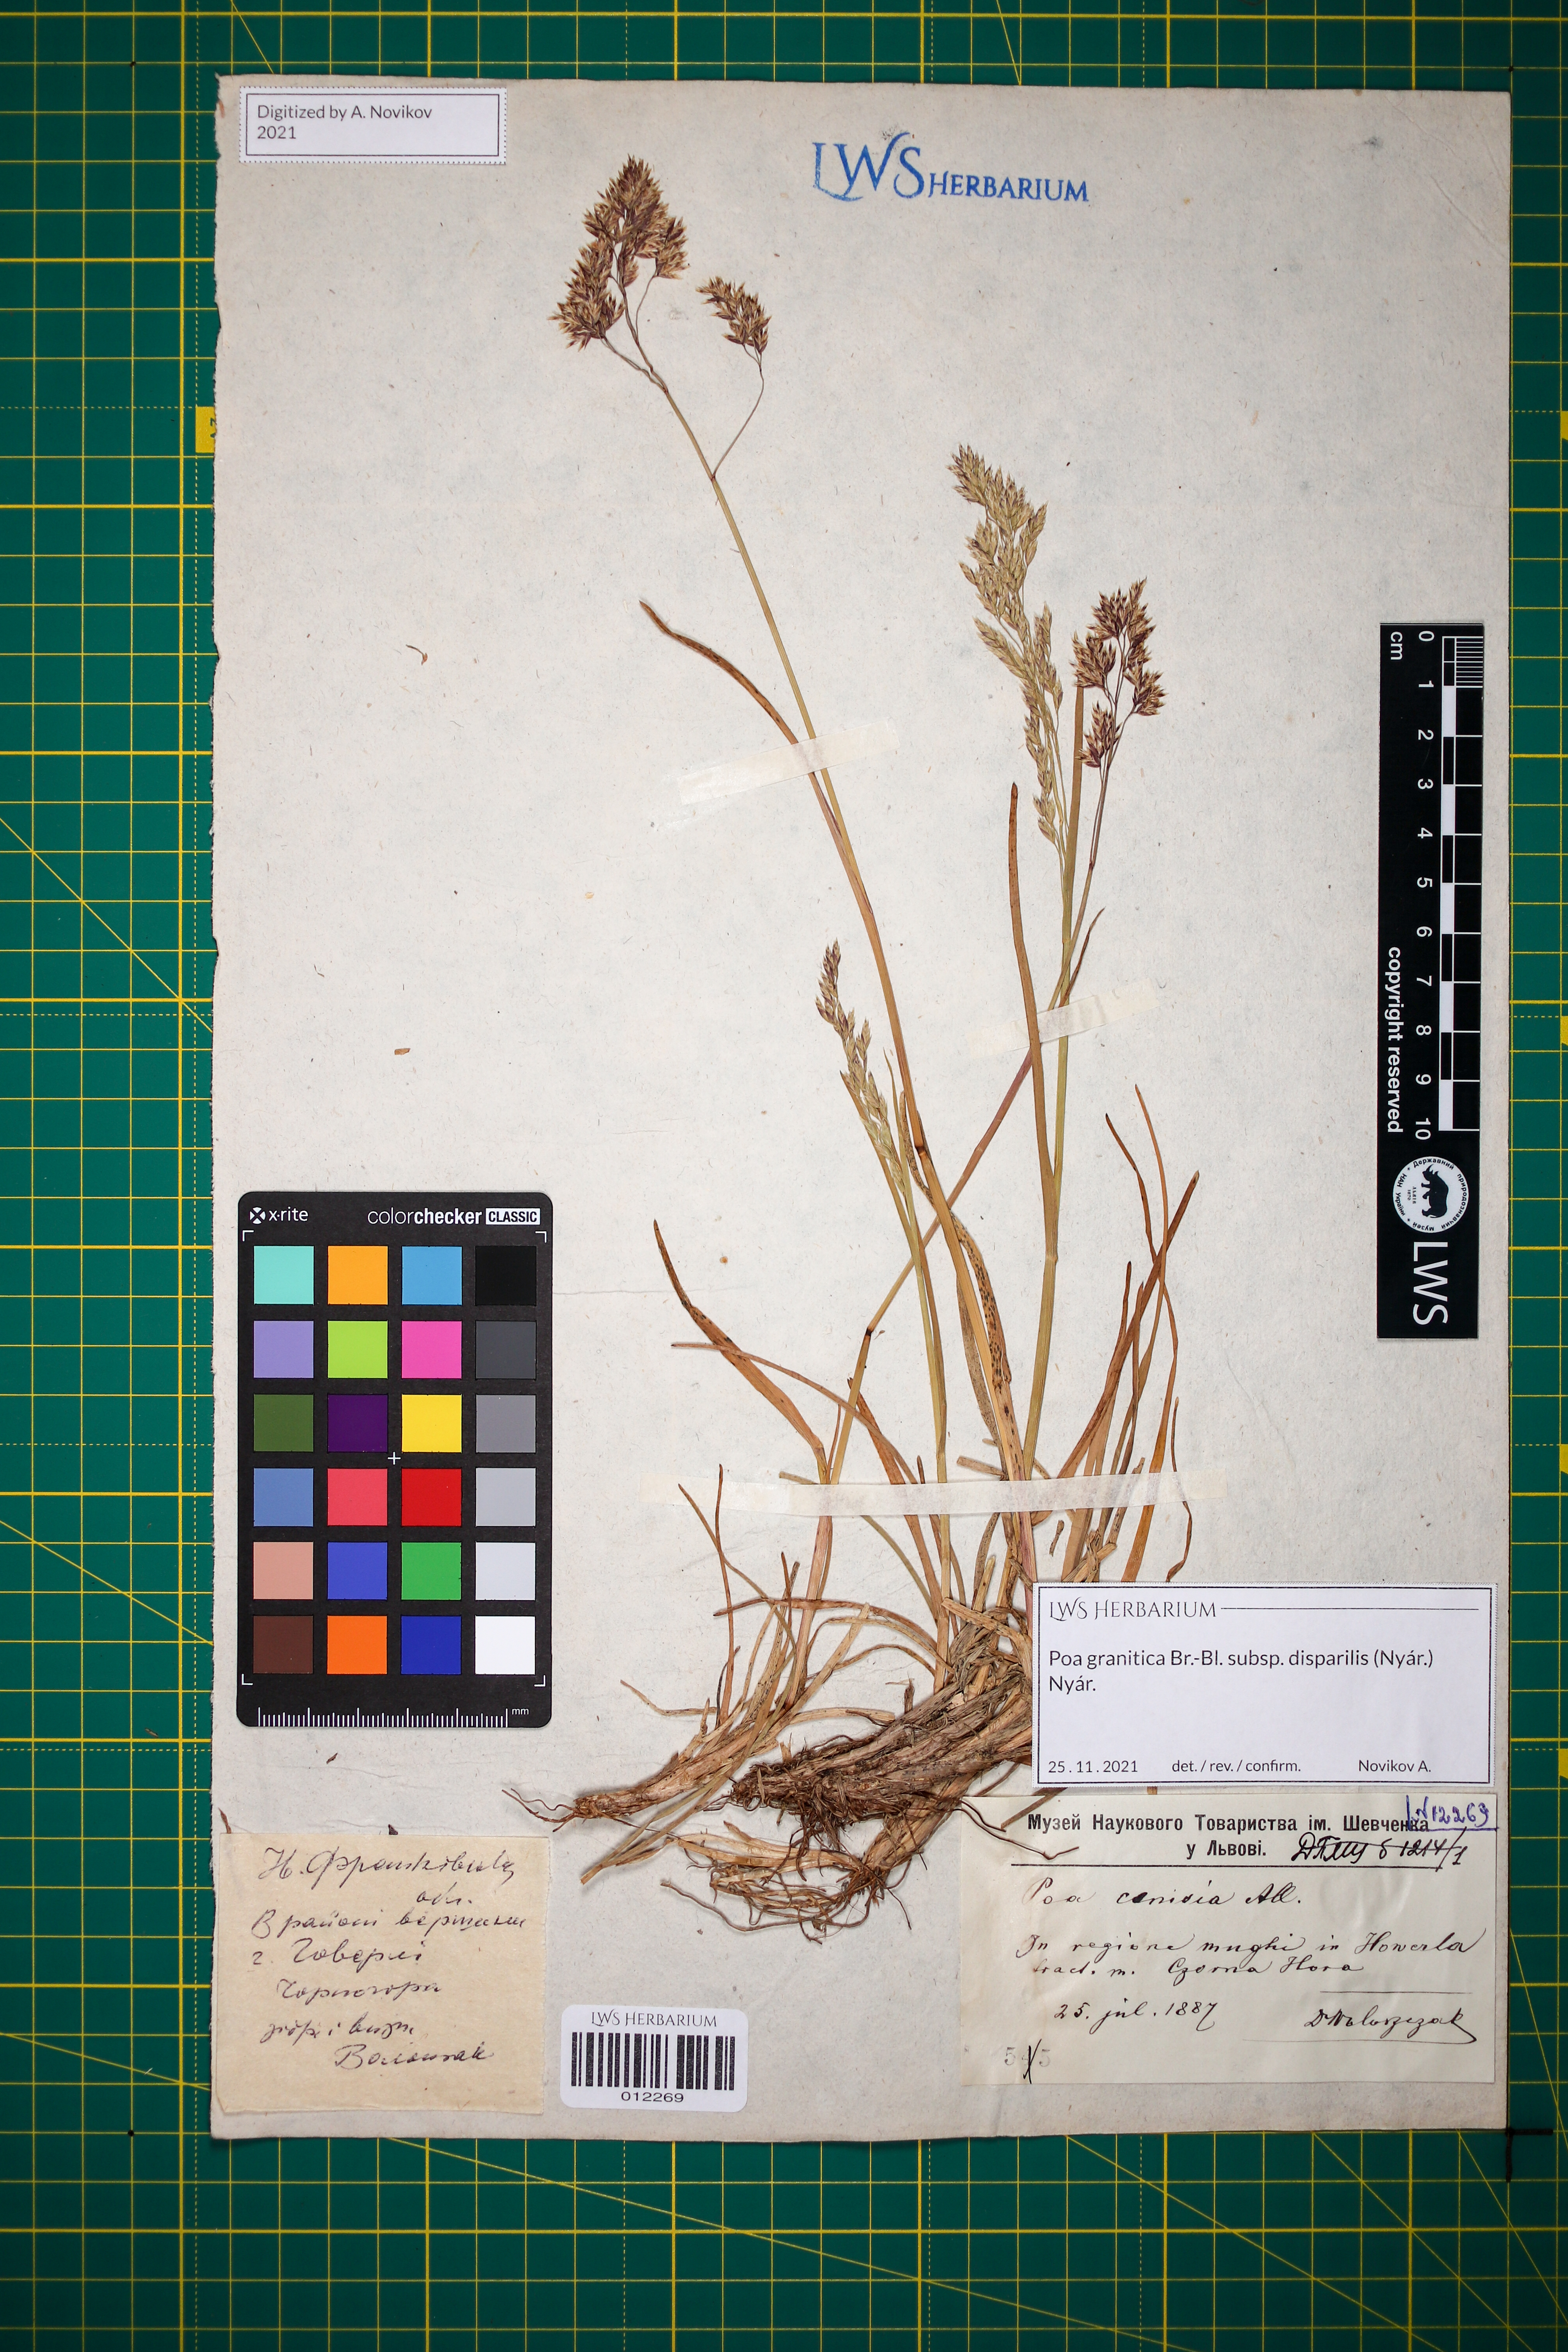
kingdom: Plantae
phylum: Tracheophyta
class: Liliopsida
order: Poales
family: Poaceae
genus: Poa
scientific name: Poa granitica
